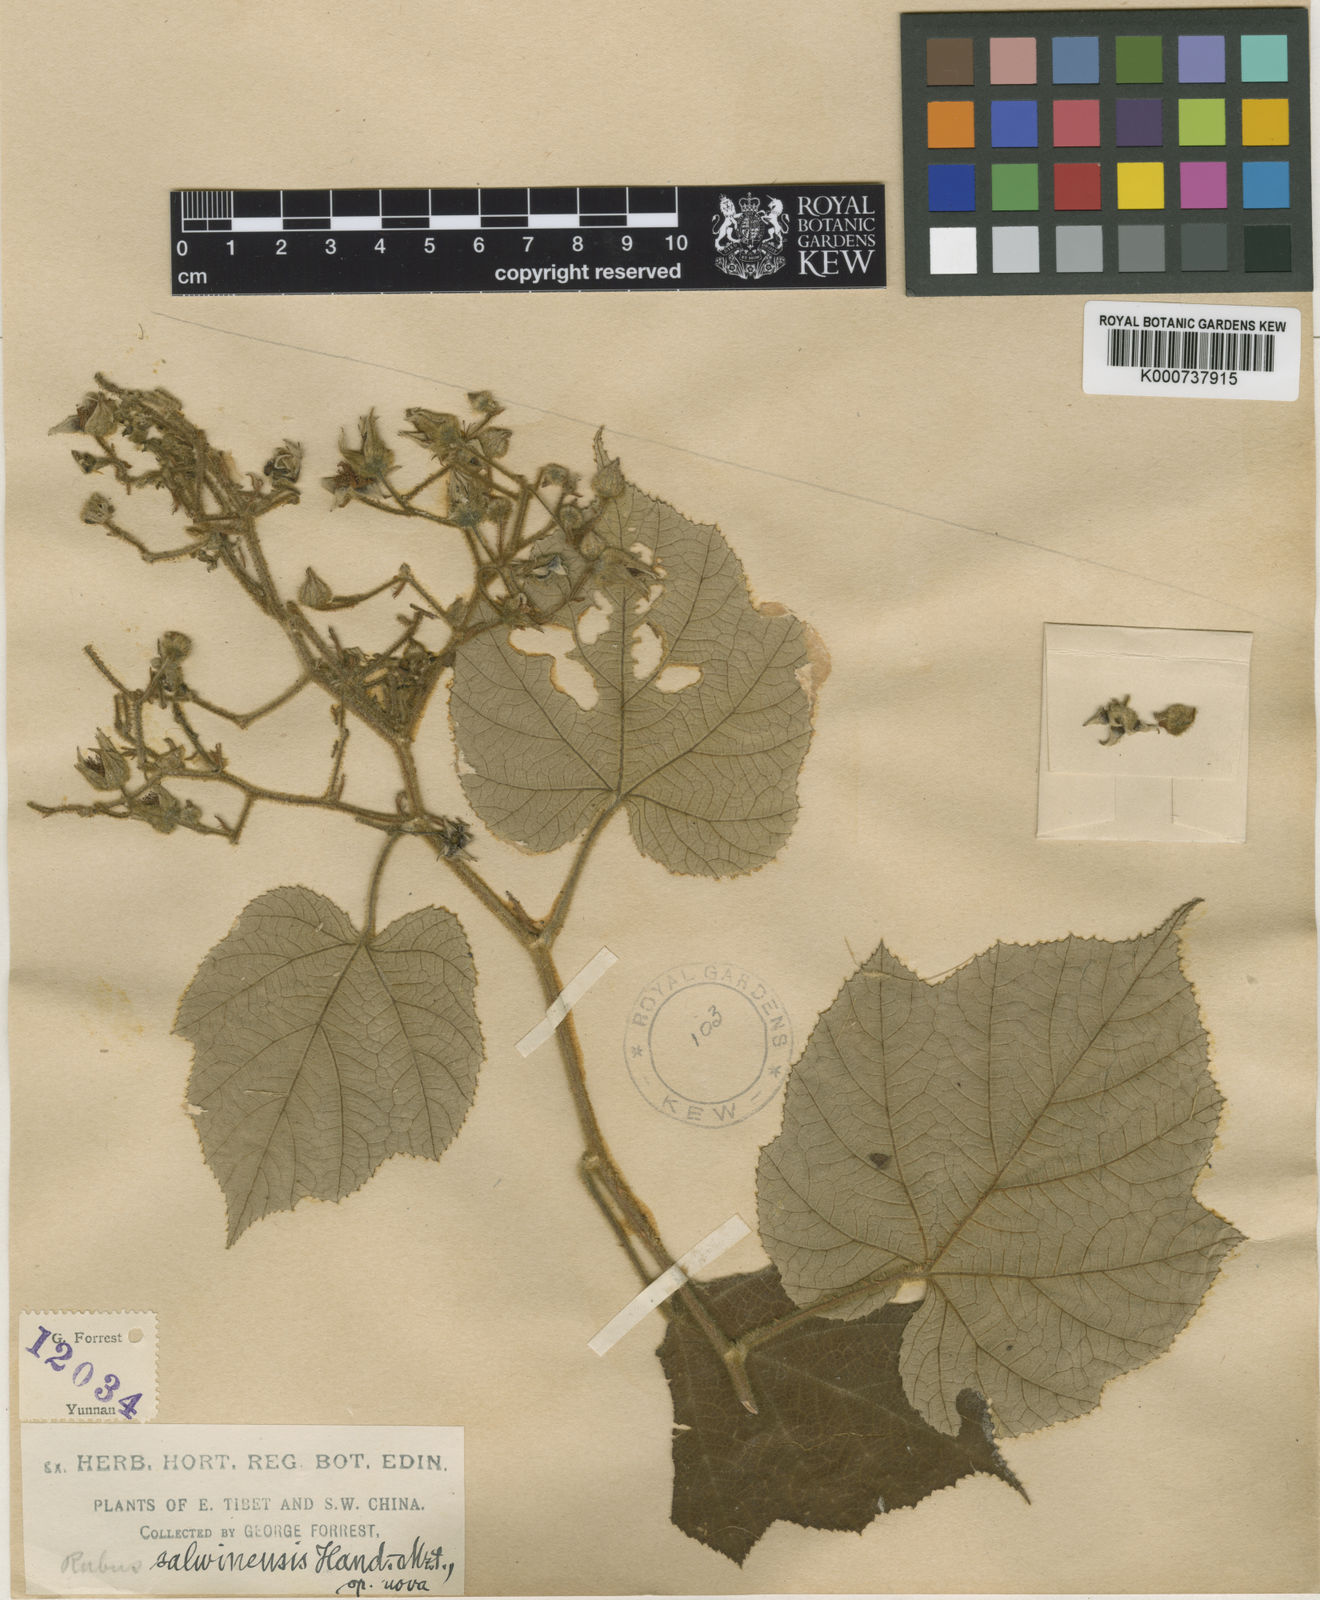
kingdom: Plantae
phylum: Tracheophyta
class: Magnoliopsida
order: Rosales
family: Rosaceae
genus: Rubus
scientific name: Rubus
